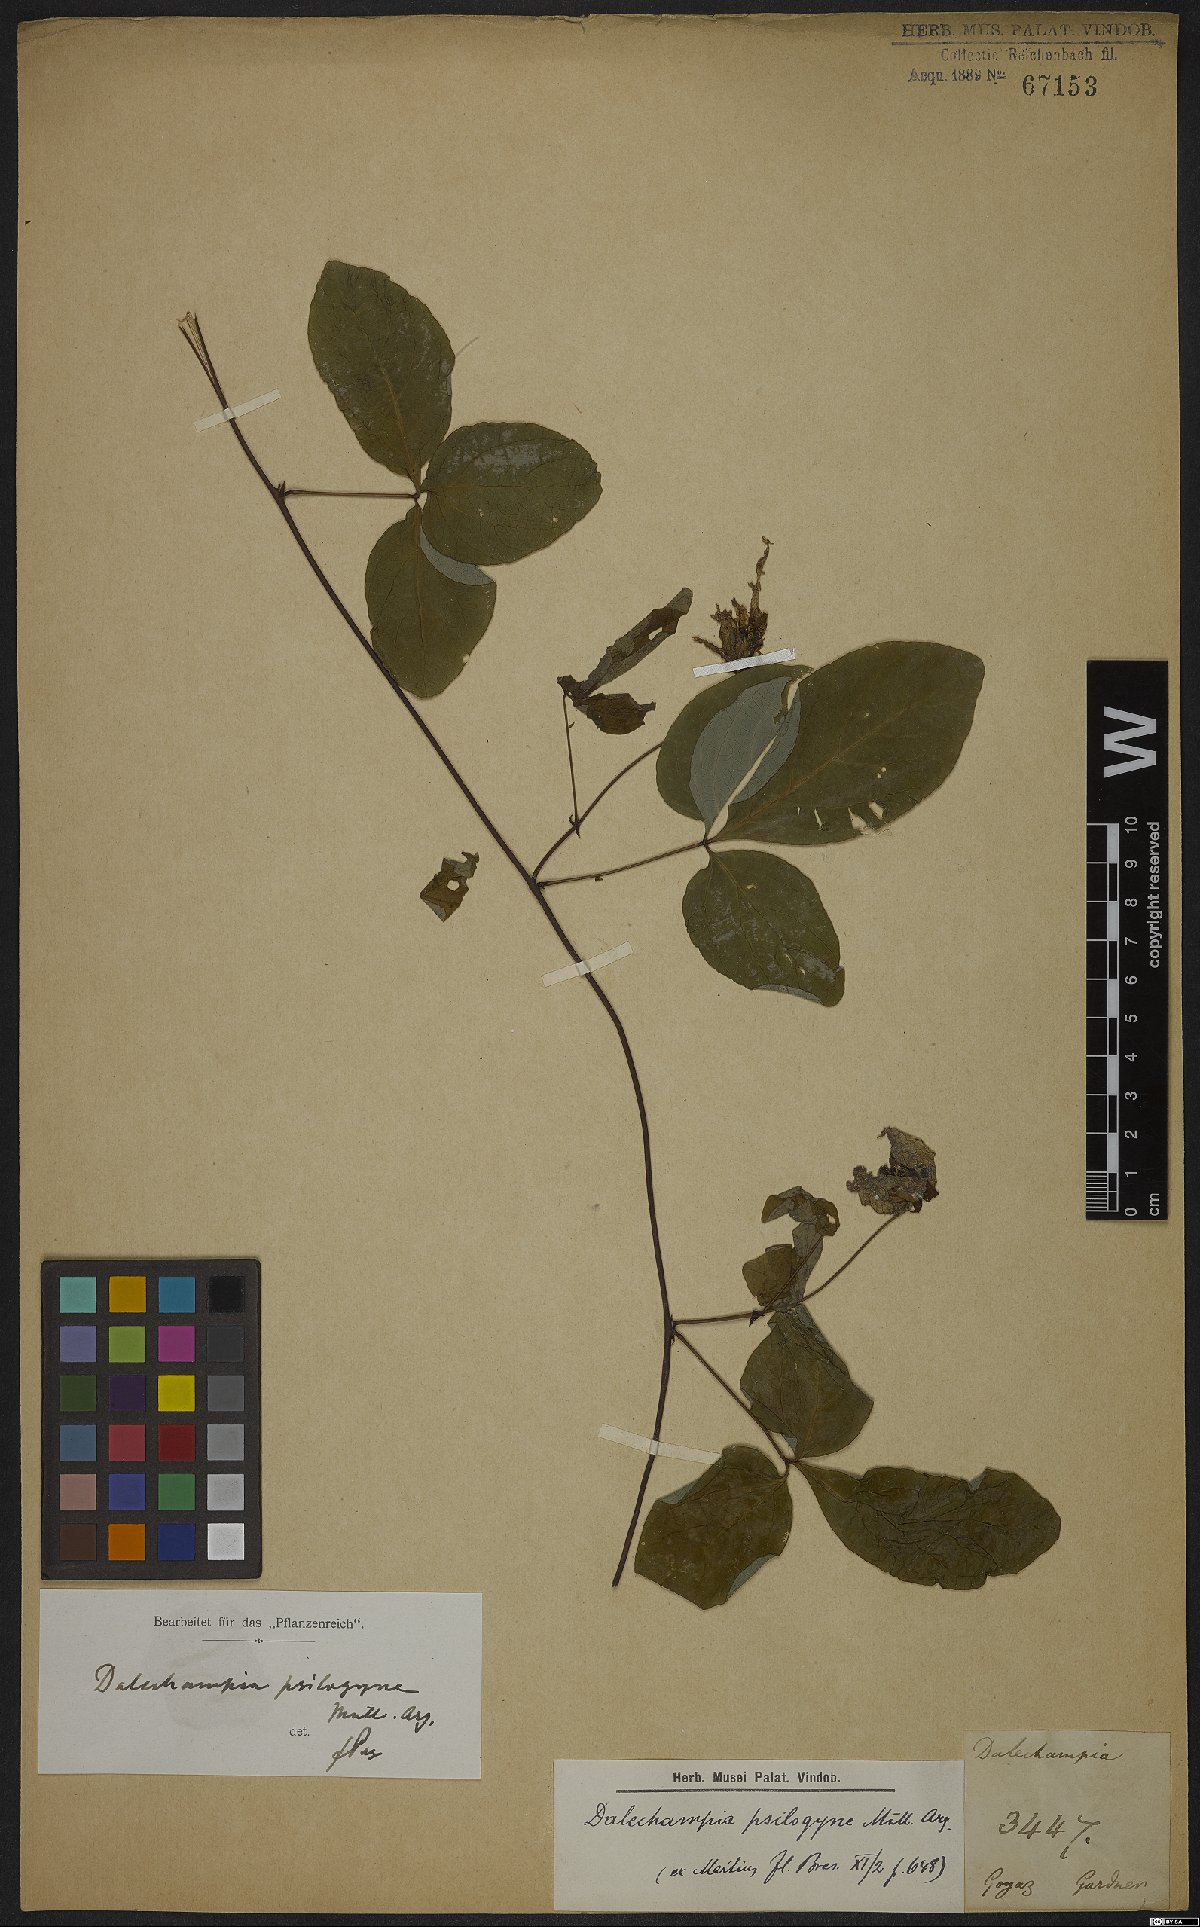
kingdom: Plantae
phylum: Tracheophyta
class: Magnoliopsida
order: Malpighiales
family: Euphorbiaceae
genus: Dalechampia
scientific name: Dalechampia psilogyne
